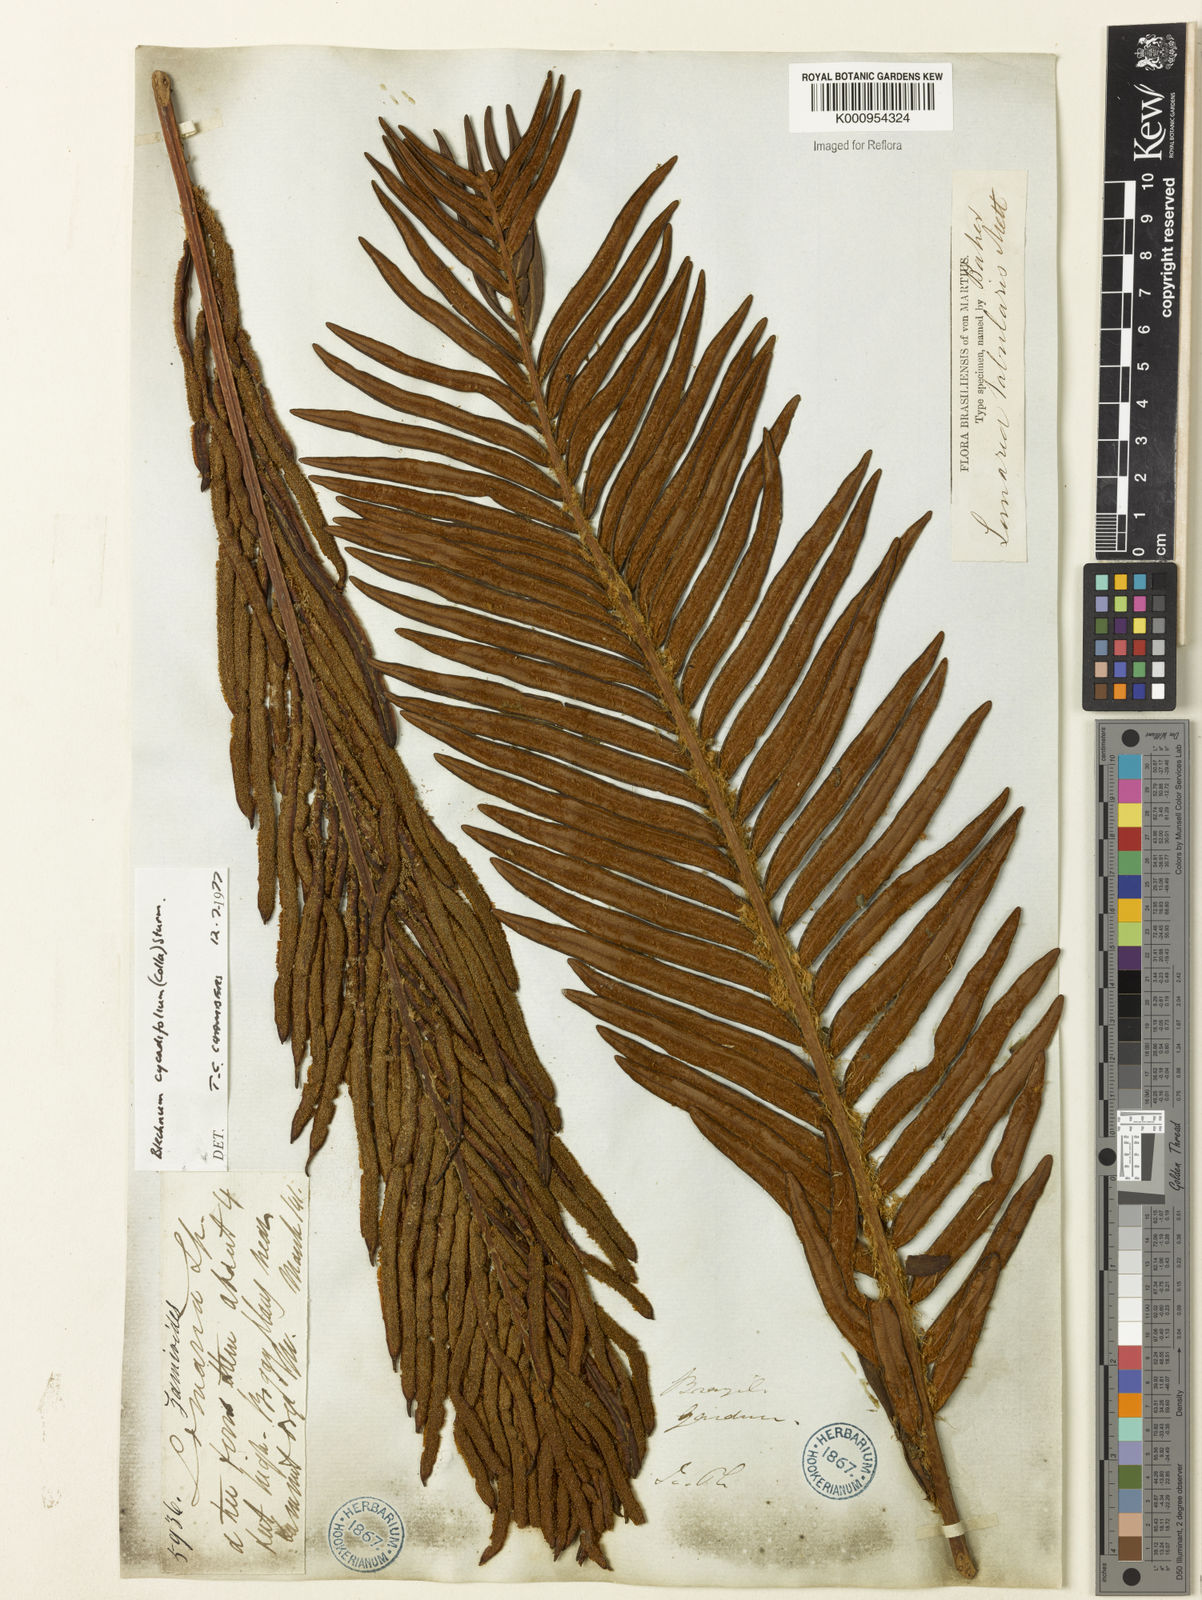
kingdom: Plantae
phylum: Tracheophyta
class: Polypodiopsida
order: Polypodiales
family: Blechnaceae
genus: Lomariocycas
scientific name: Lomariocycas cycadifolia
